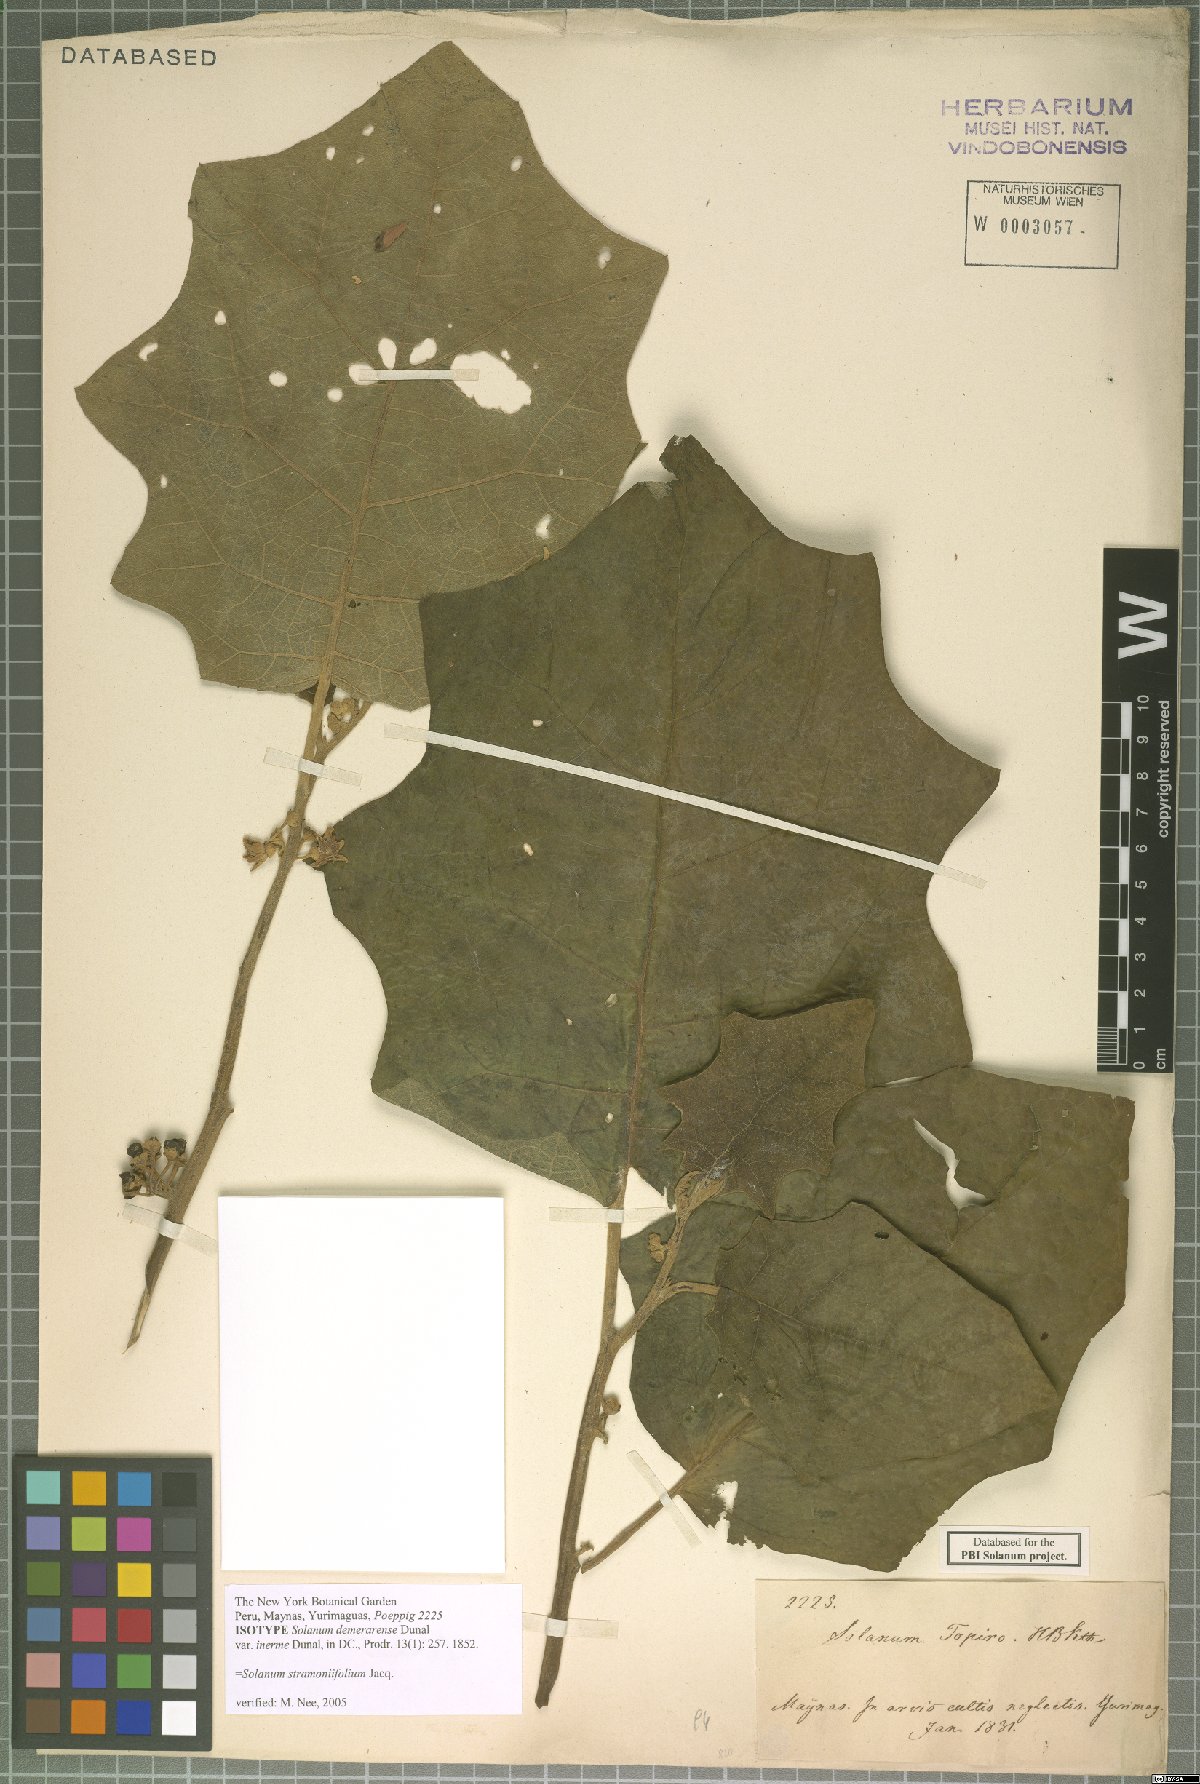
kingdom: Plantae
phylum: Tracheophyta
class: Magnoliopsida
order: Solanales
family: Solanaceae
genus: Solanum
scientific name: Solanum stramonifolium
